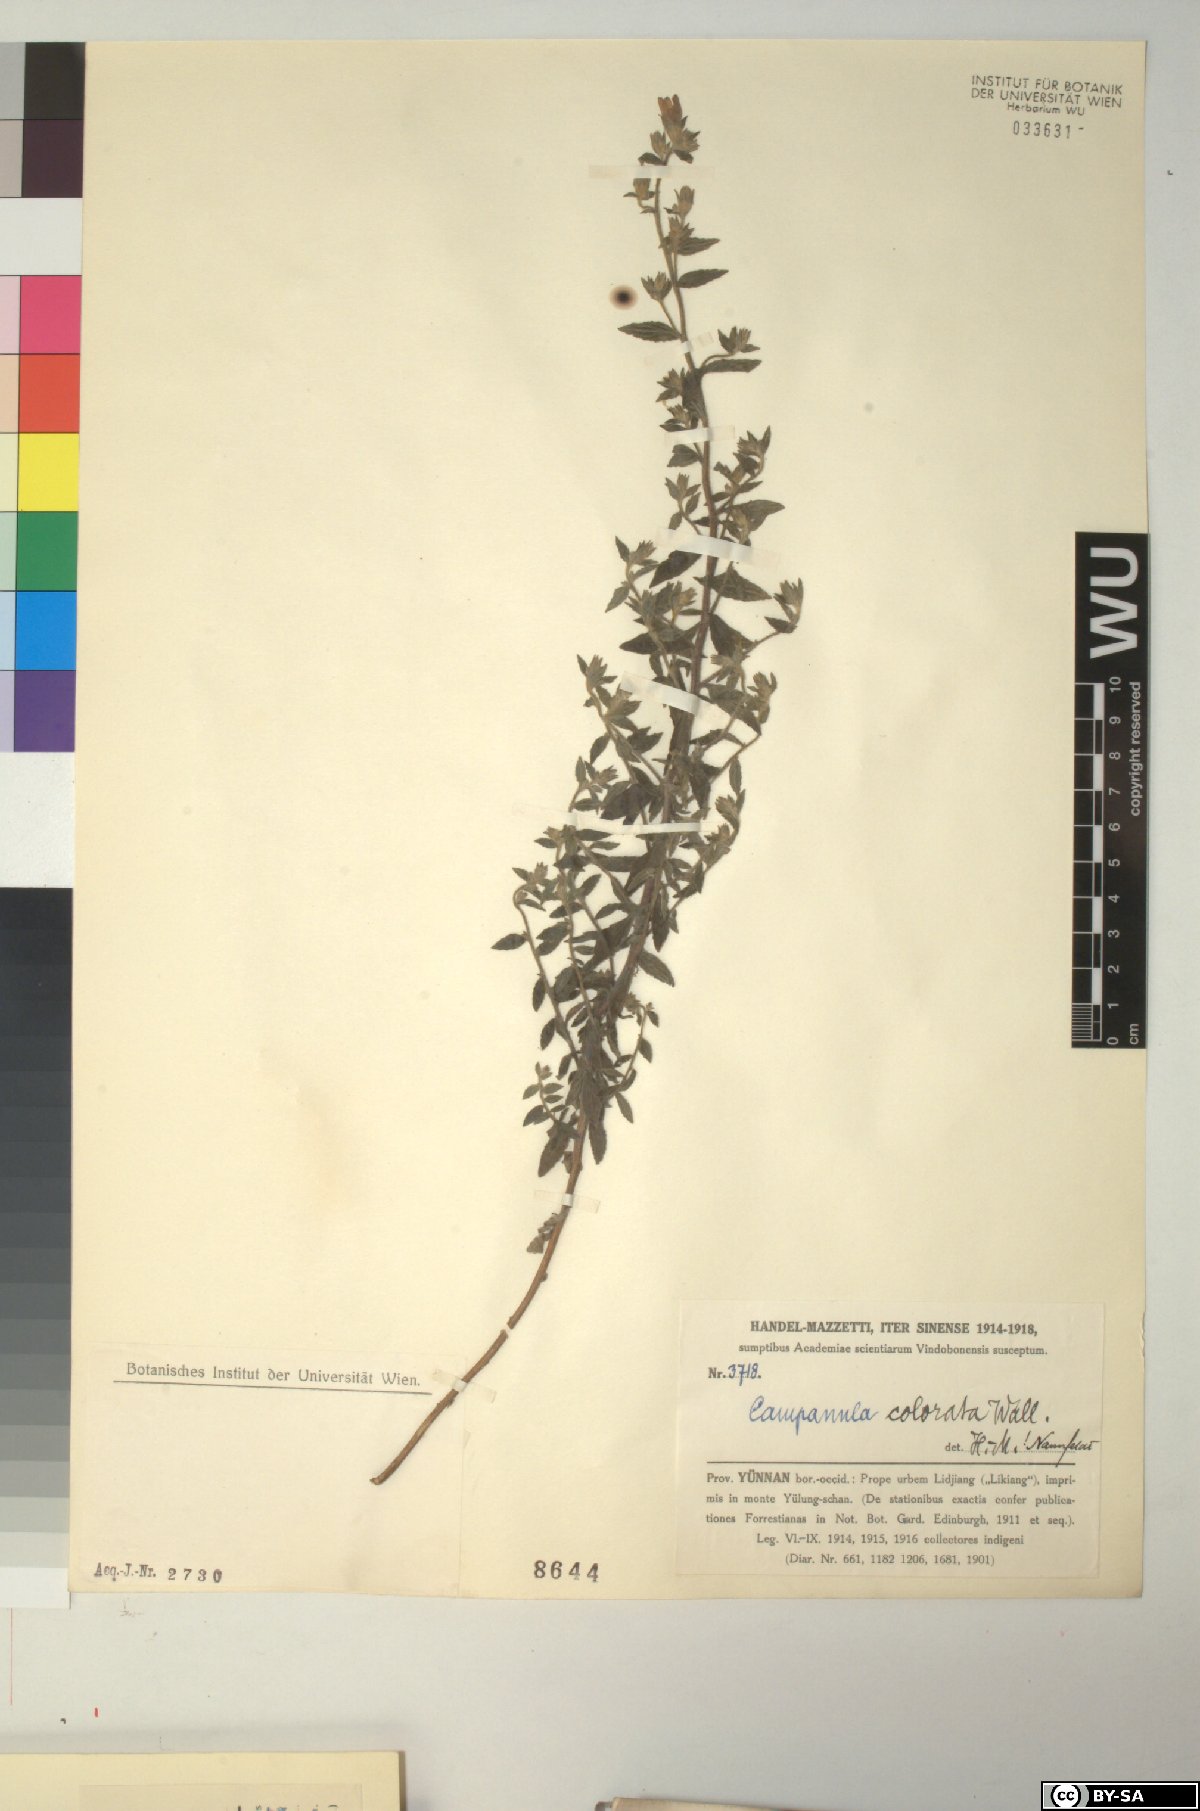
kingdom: Plantae
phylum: Tracheophyta
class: Magnoliopsida
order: Asterales
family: Campanulaceae
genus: Campanula
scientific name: Campanula pallida
